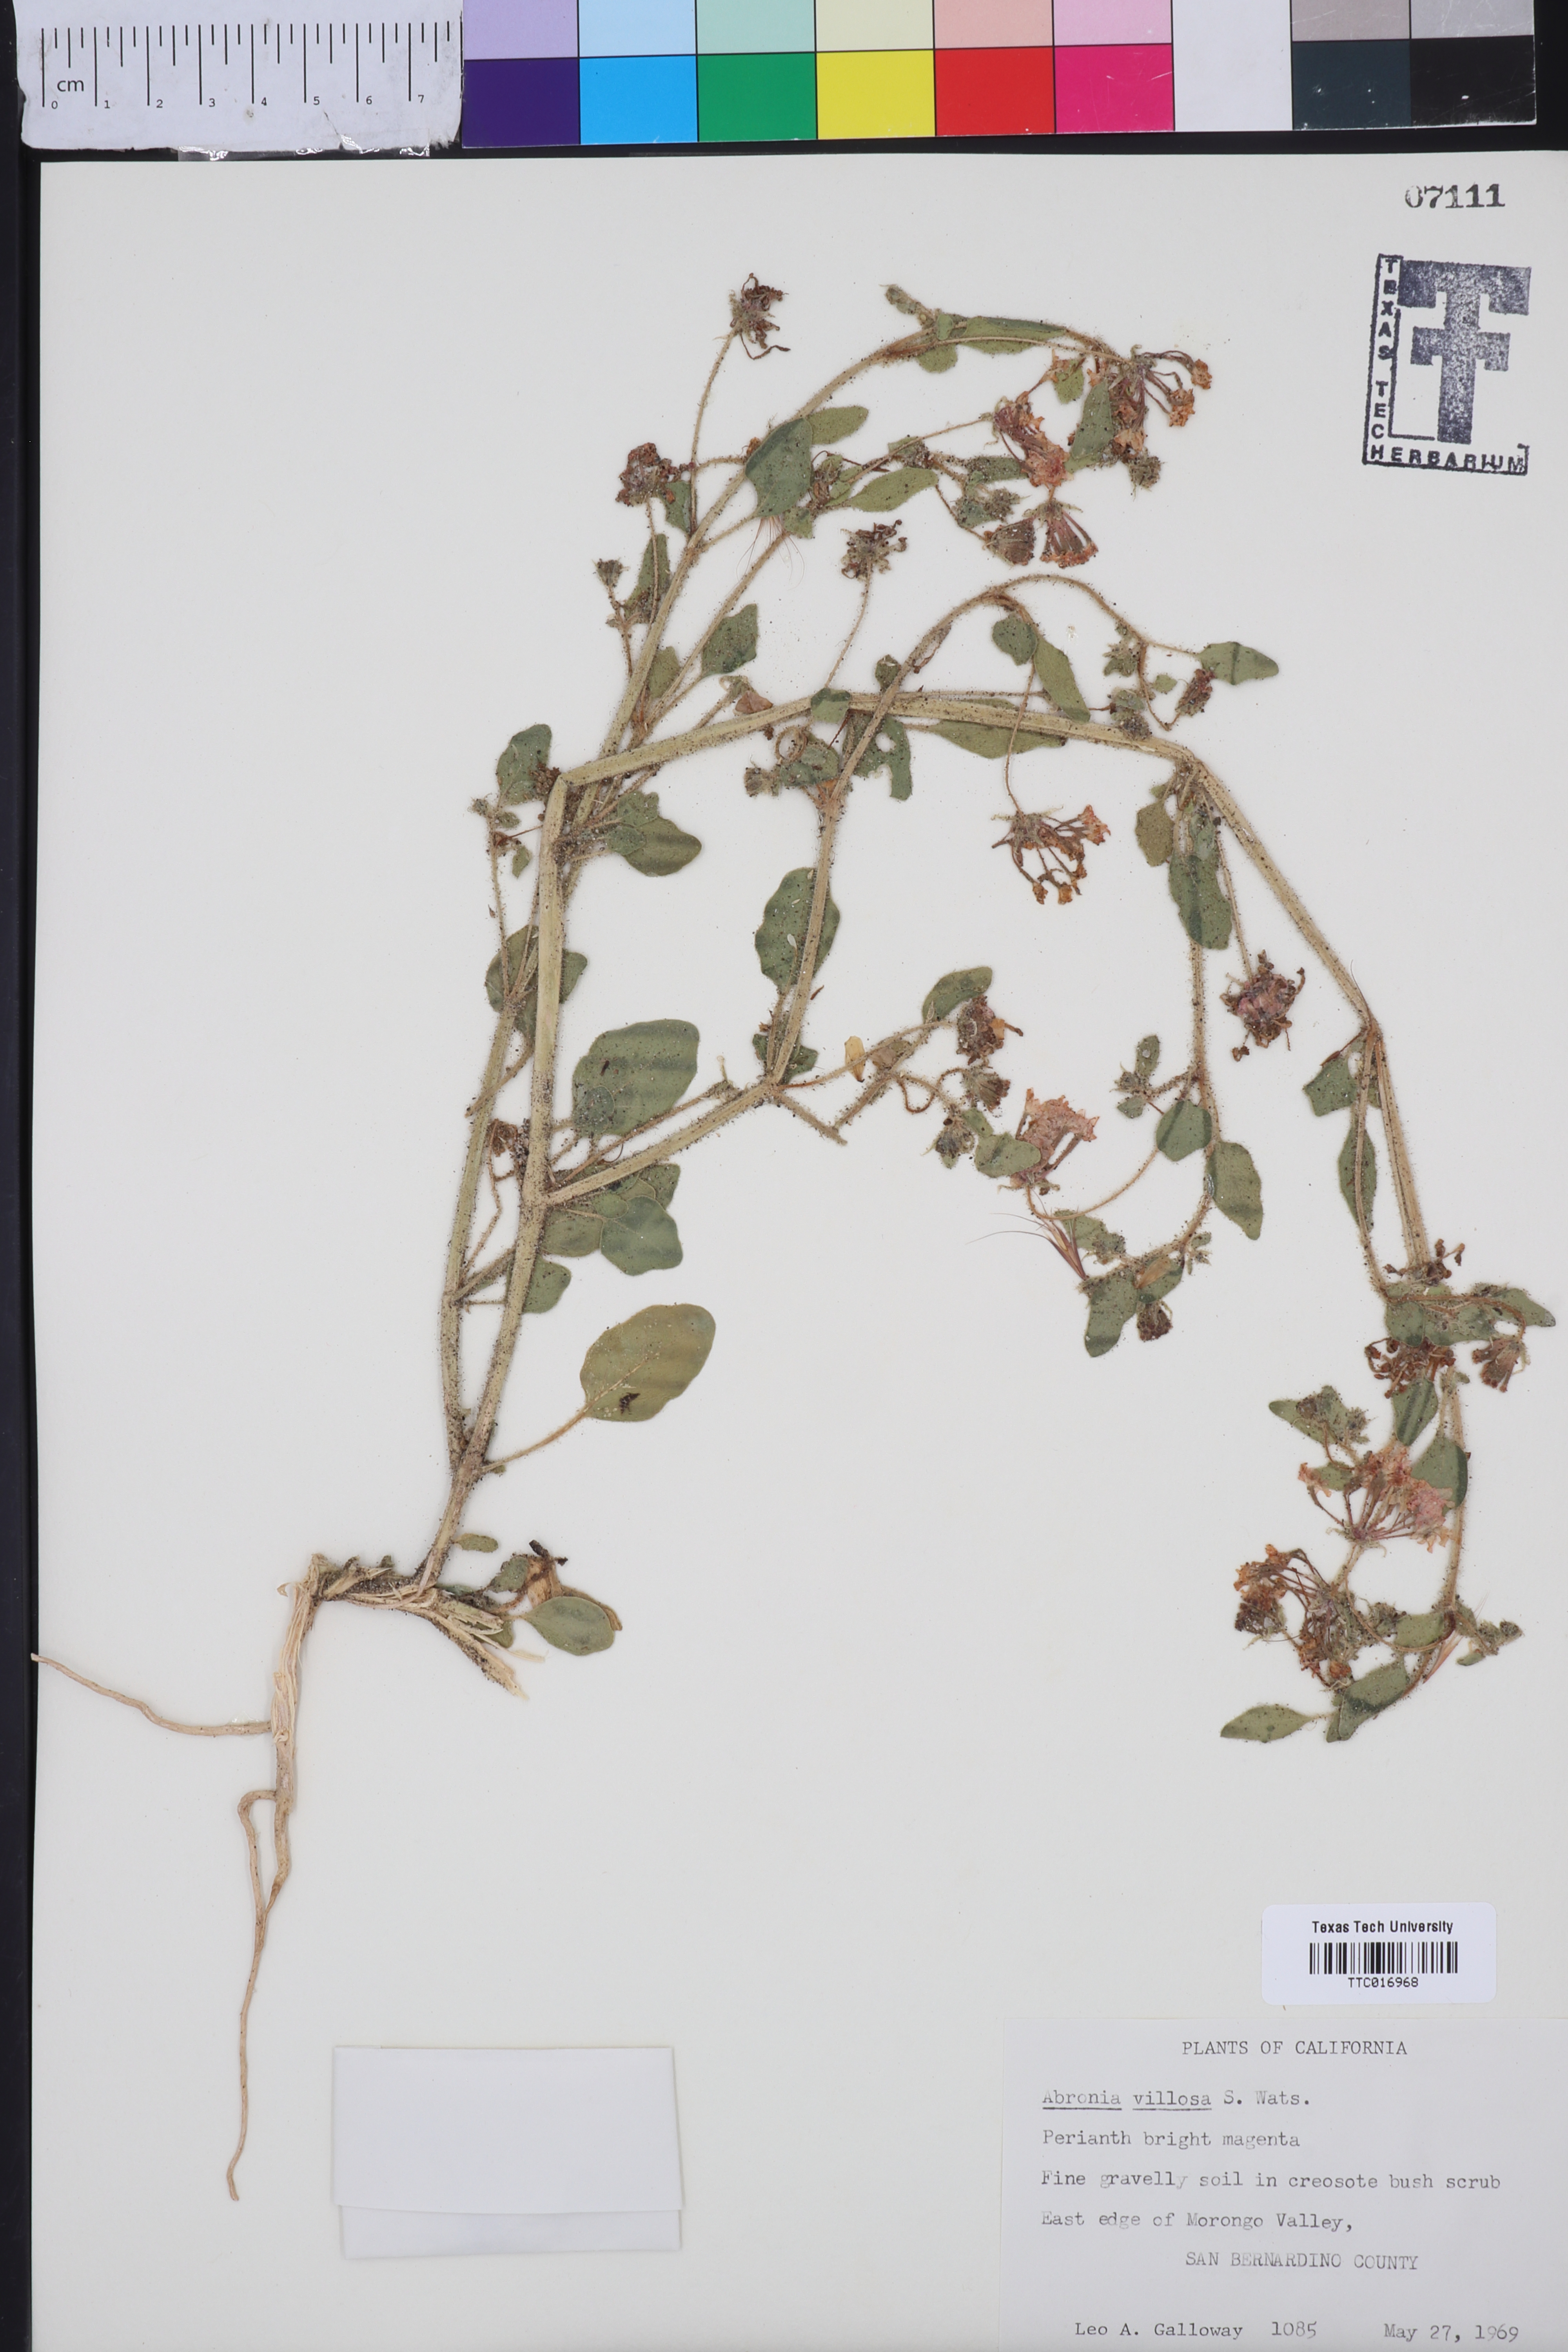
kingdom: Plantae
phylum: Tracheophyta
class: Magnoliopsida
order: Caryophyllales
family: Nyctaginaceae
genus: Abronia
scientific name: Abronia villosa
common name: Desert sand-verbena
